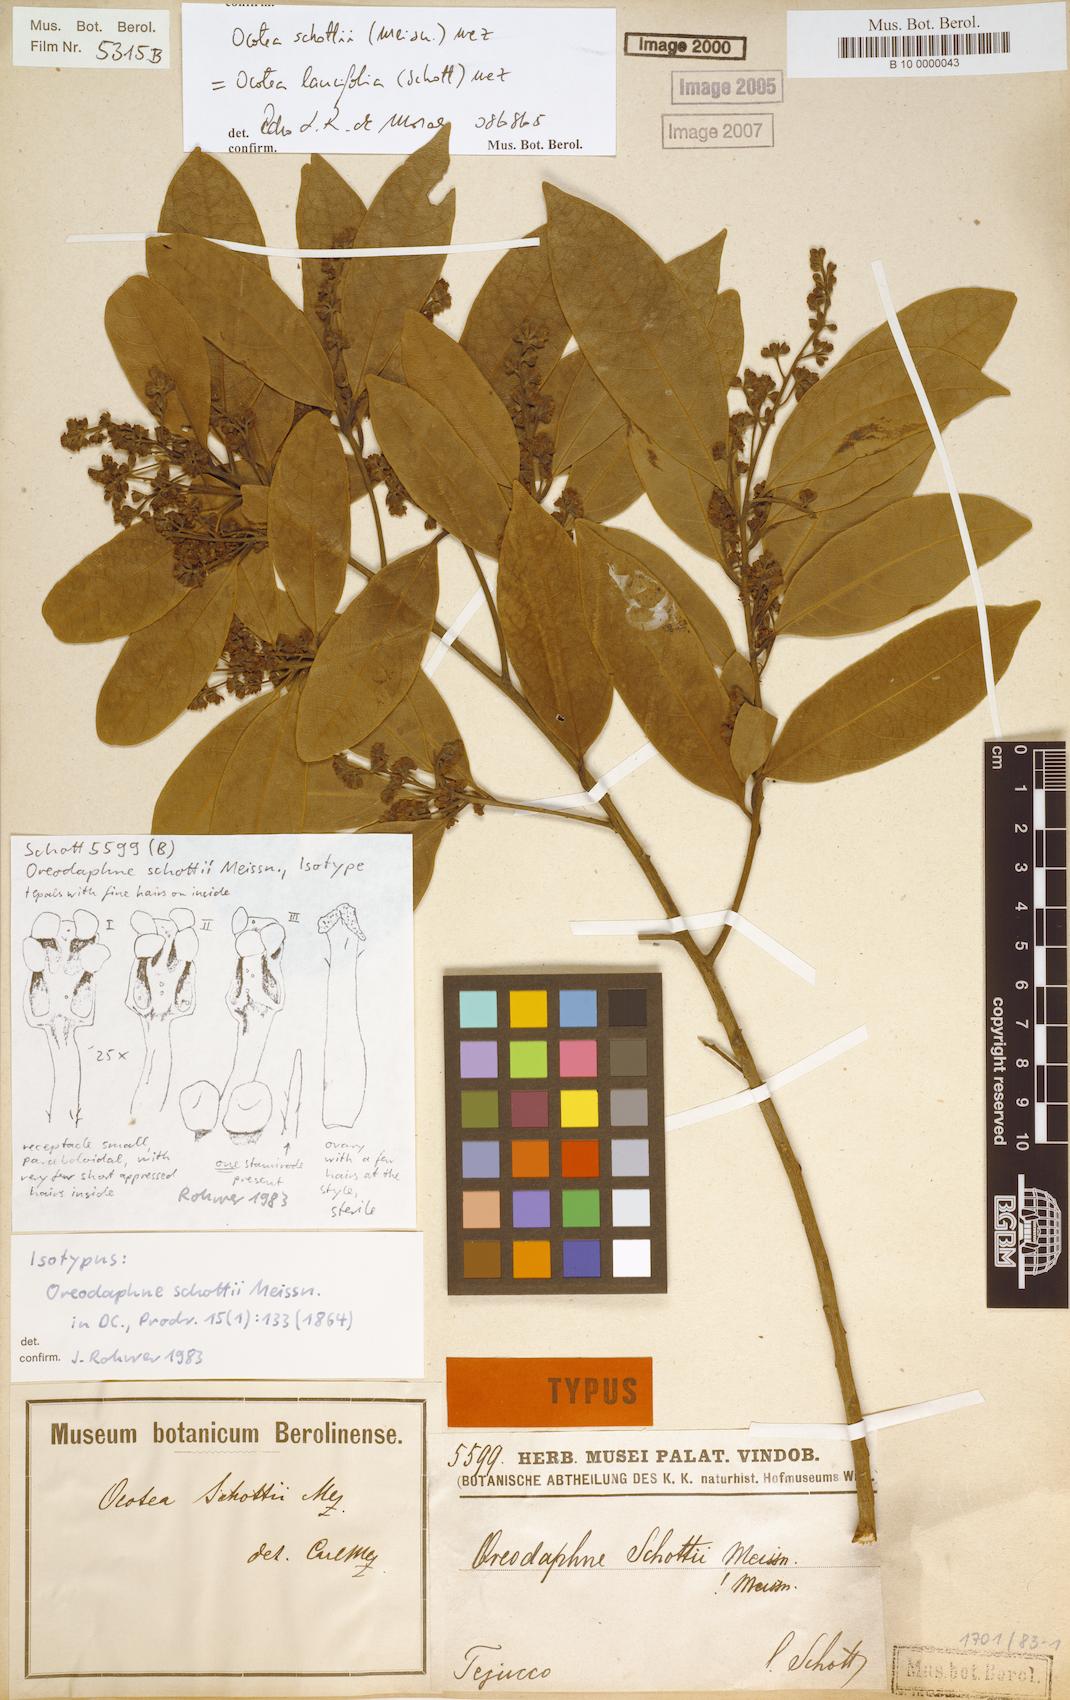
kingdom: Plantae
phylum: Tracheophyta
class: Magnoliopsida
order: Laurales
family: Lauraceae
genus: Ocotea
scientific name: Ocotea lancifolia
